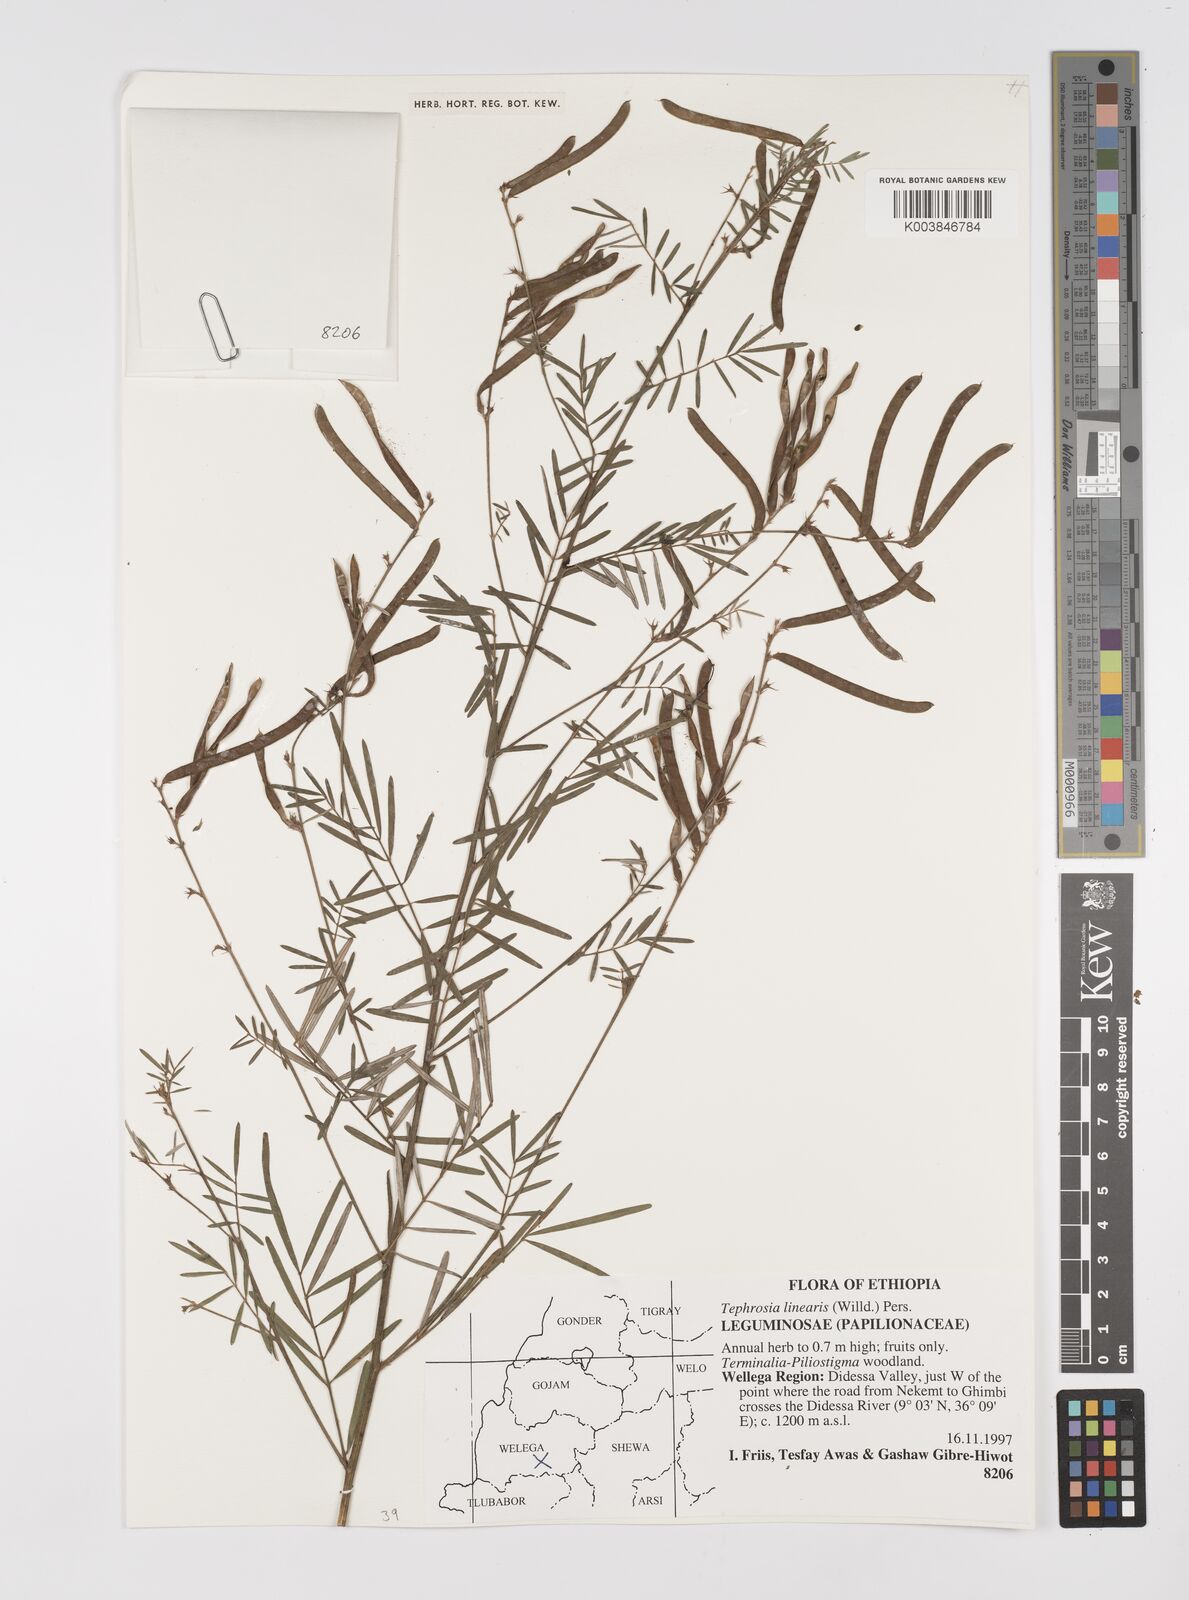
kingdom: Plantae
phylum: Tracheophyta
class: Magnoliopsida
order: Fabales
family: Fabaceae
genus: Tephrosia
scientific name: Tephrosia linearis
